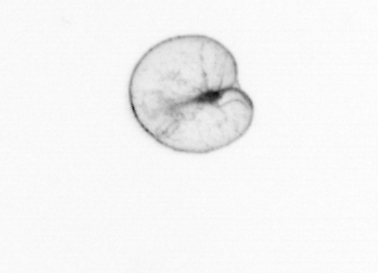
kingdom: Chromista
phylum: Myzozoa
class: Dinophyceae
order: Noctilucales
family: Noctilucaceae
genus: Noctiluca
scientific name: Noctiluca scintillans
